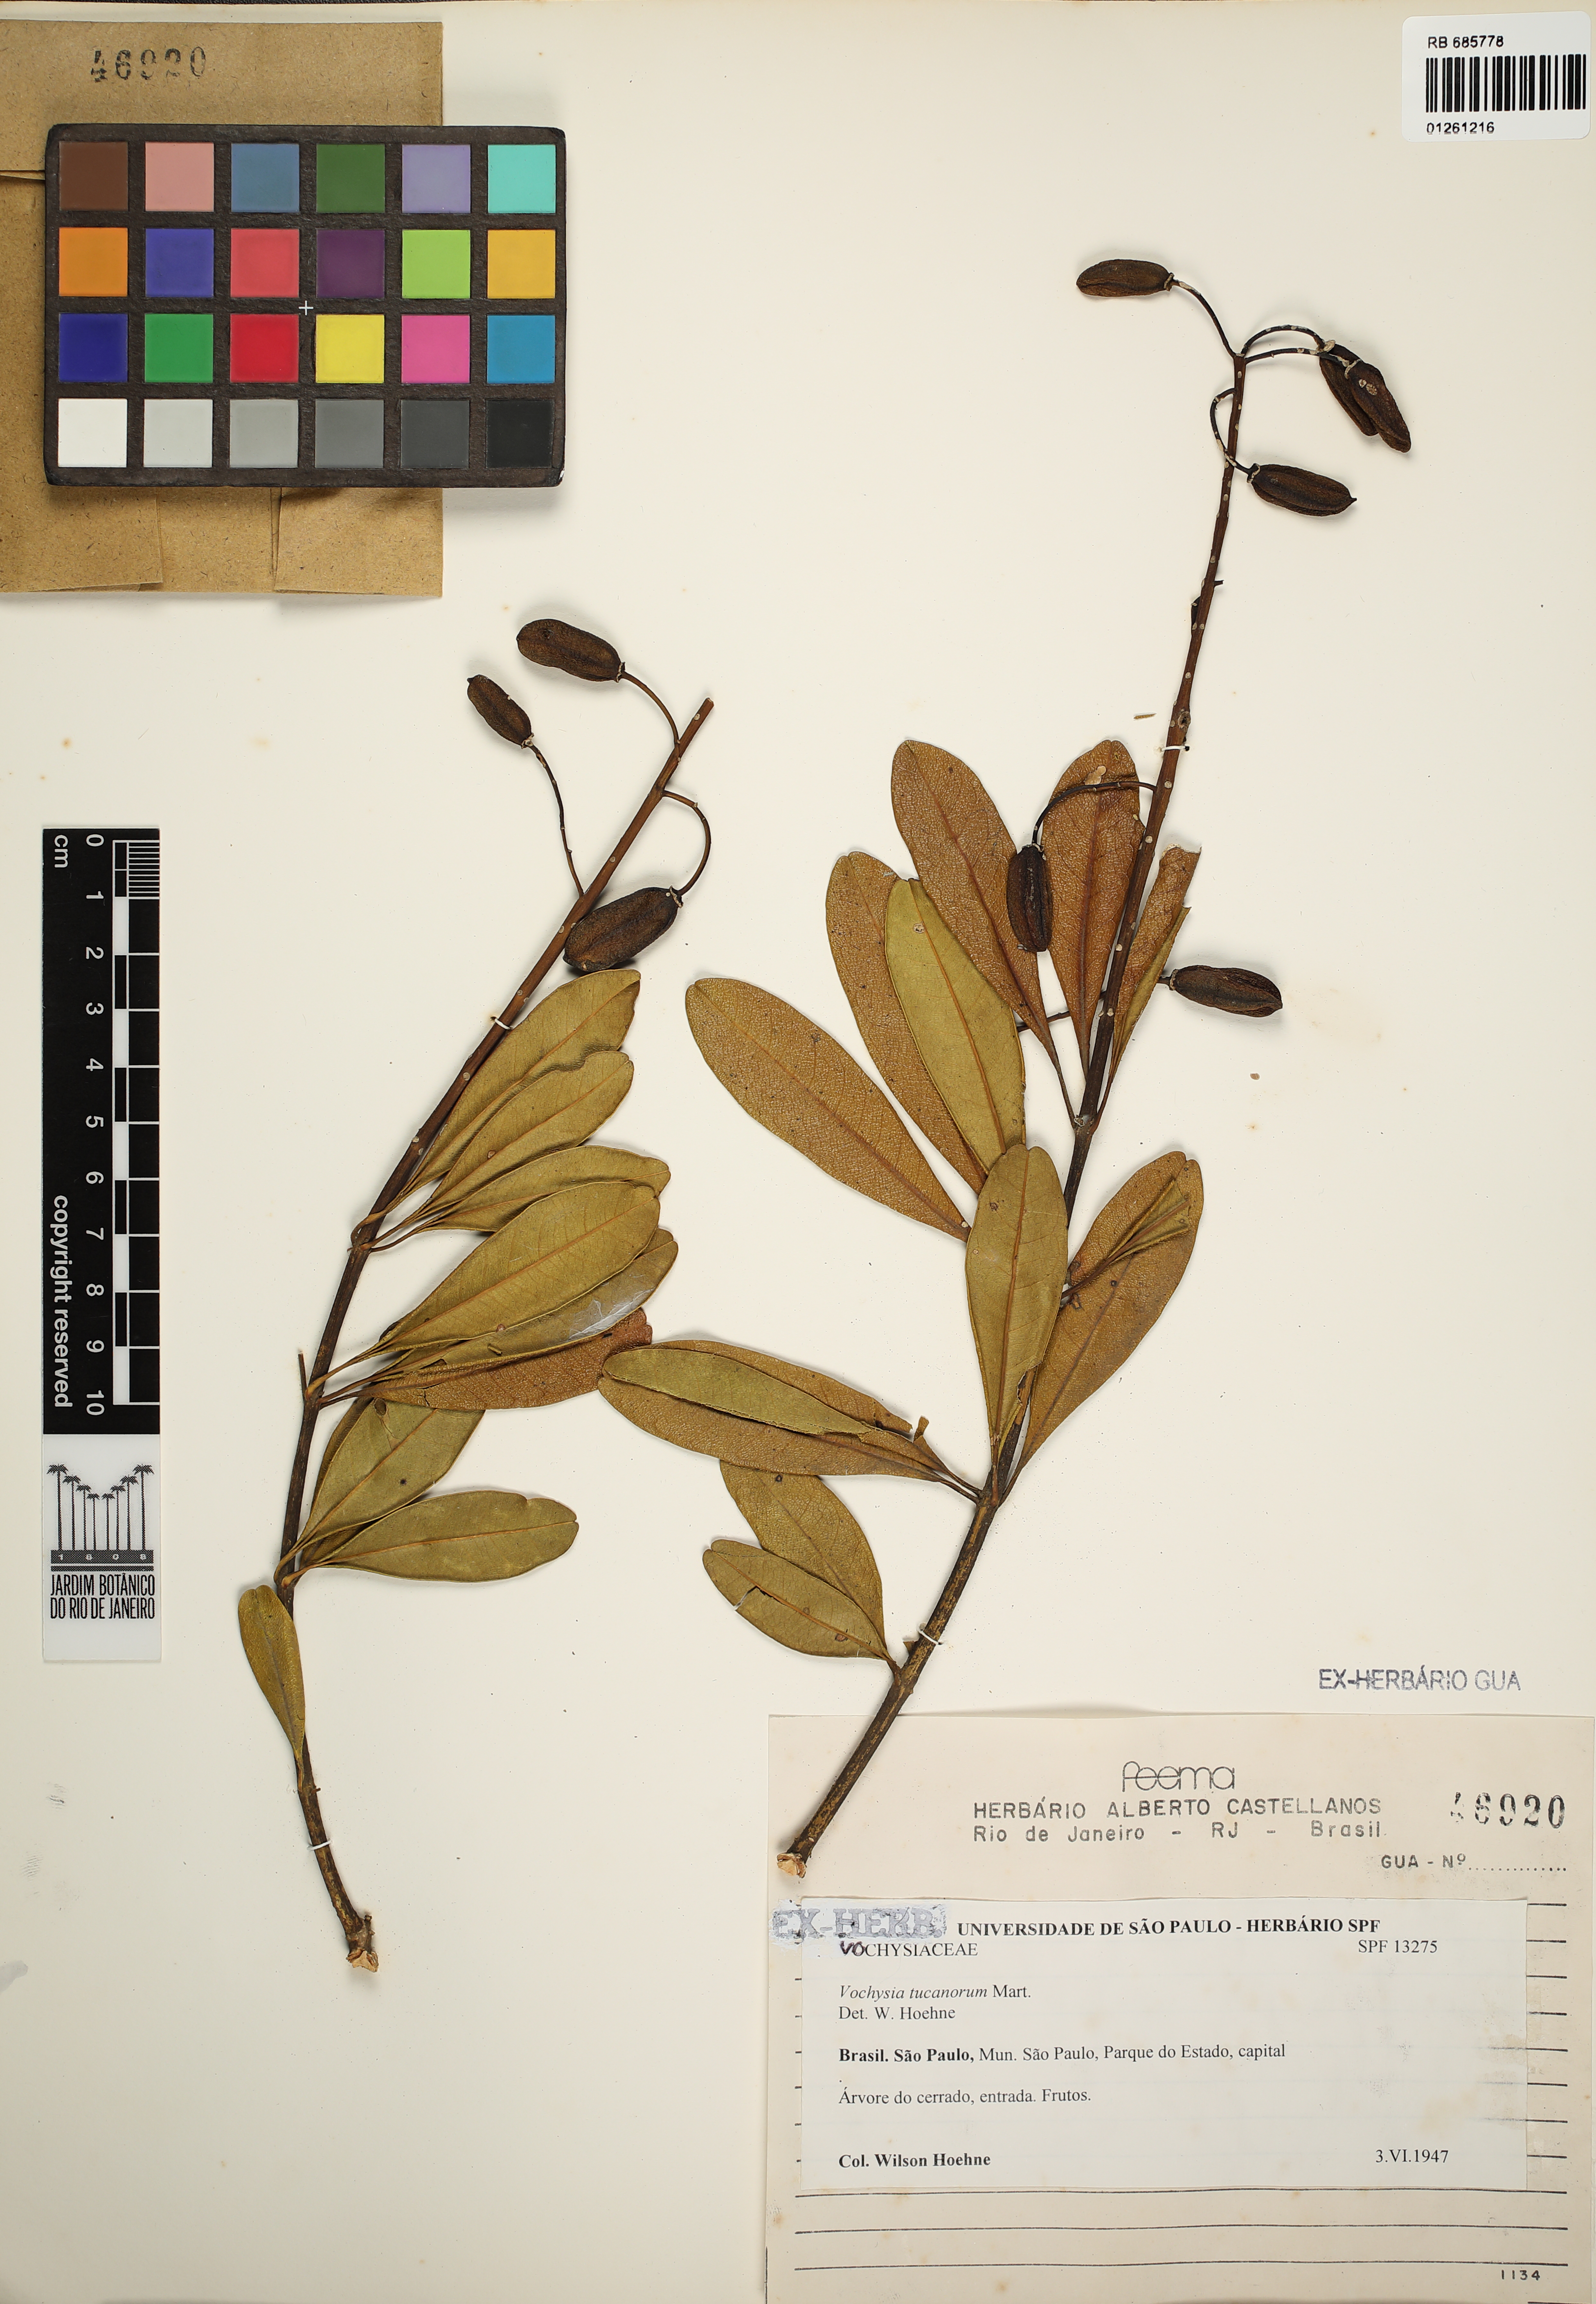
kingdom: Plantae
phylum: Tracheophyta
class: Magnoliopsida
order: Myrtales
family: Vochysiaceae
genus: Vochysia
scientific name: Vochysia tucanorum
